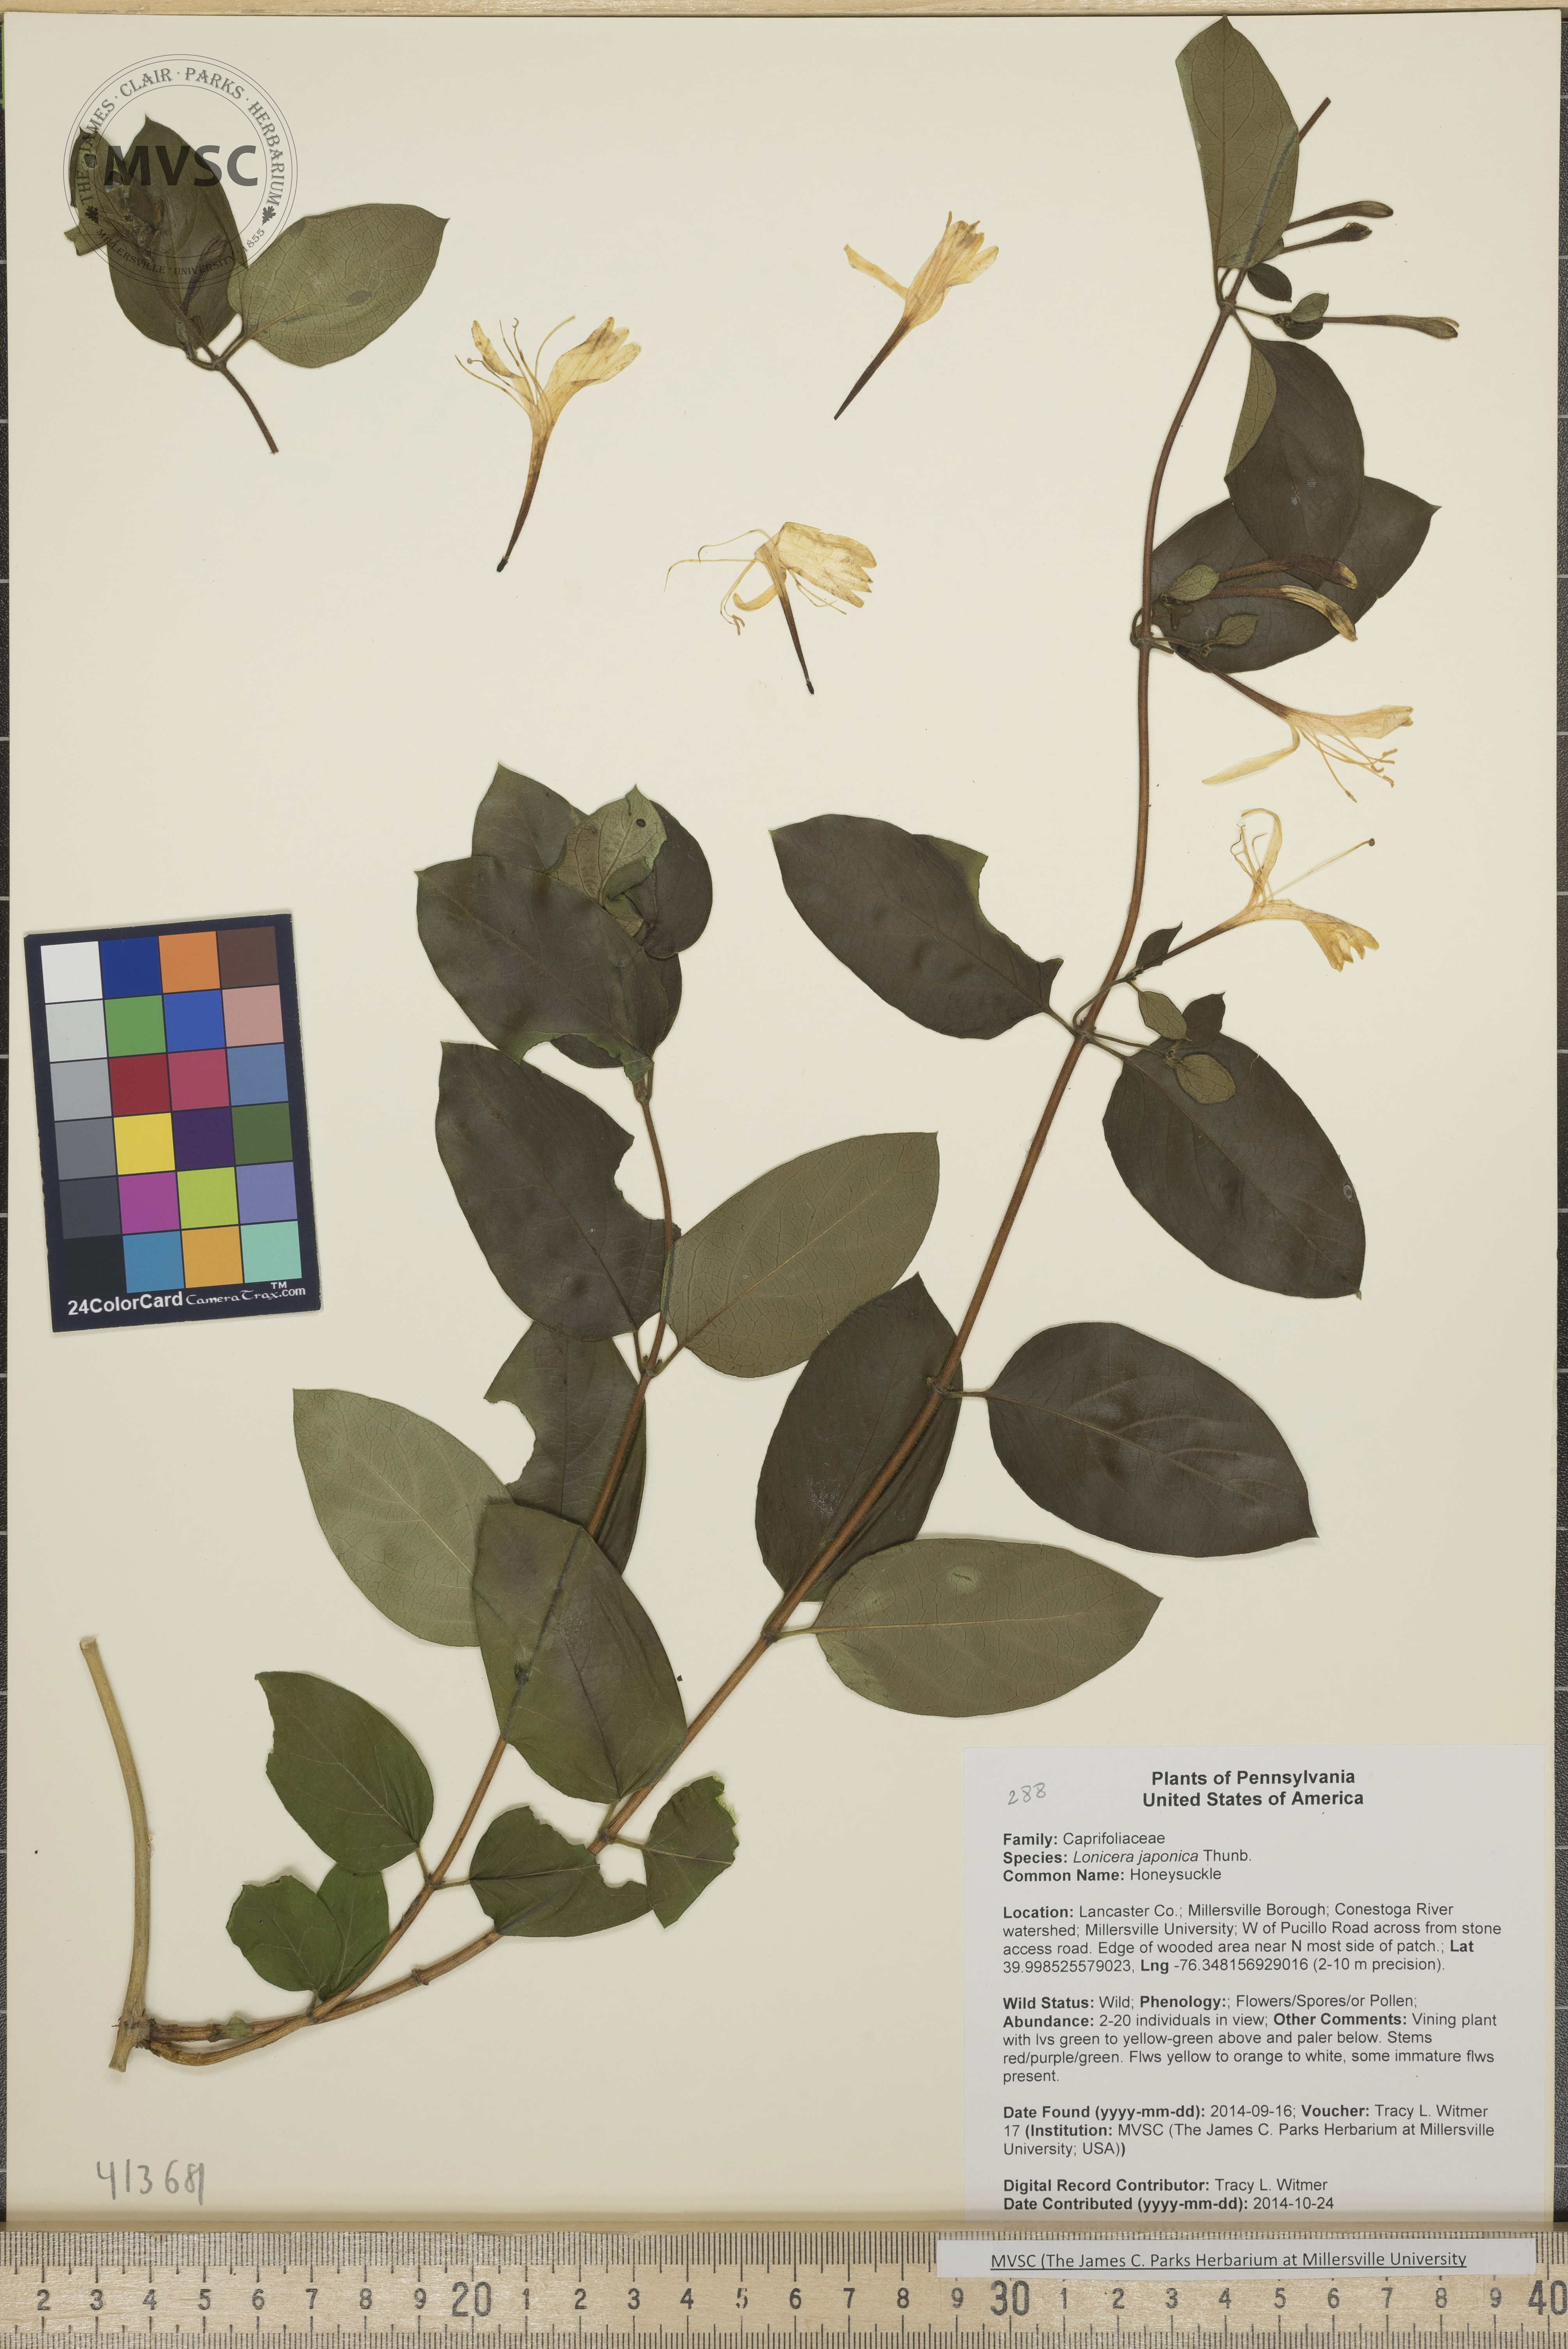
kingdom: Plantae
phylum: Tracheophyta
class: Magnoliopsida
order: Dipsacales
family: Caprifoliaceae
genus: Lonicera
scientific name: Lonicera japonica
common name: Honeysuckle
